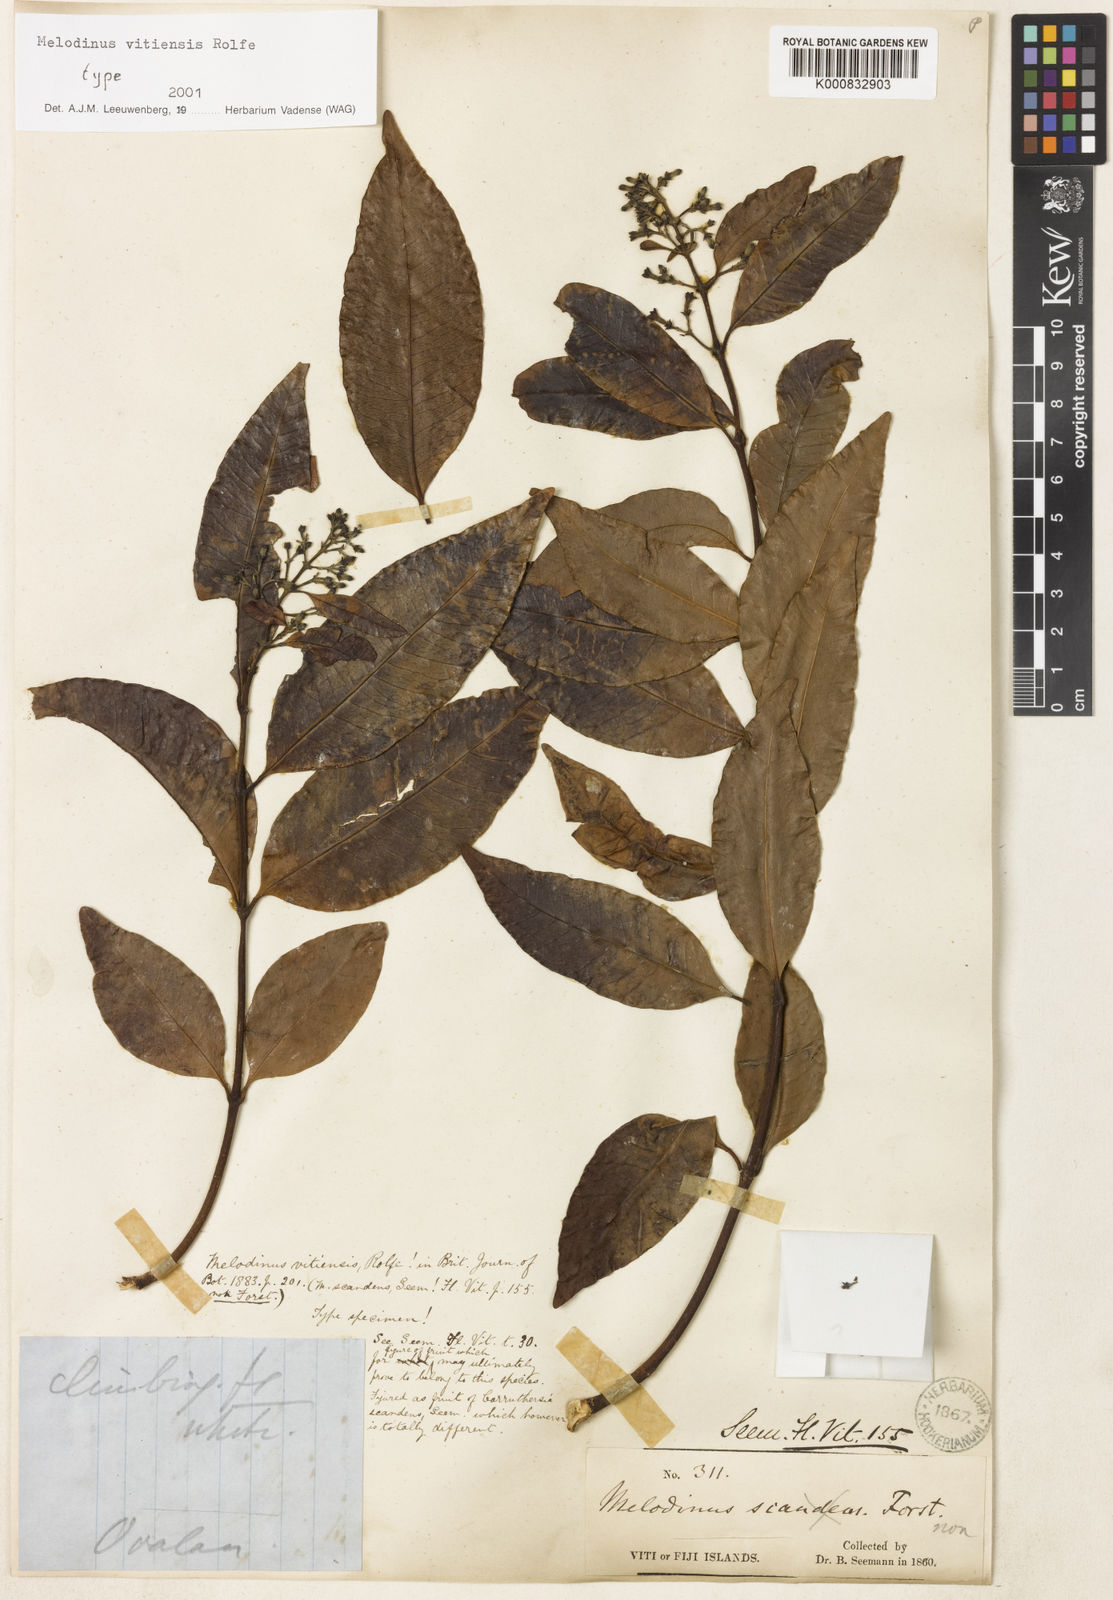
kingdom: Plantae
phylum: Tracheophyta
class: Magnoliopsida
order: Gentianales
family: Apocynaceae
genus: Melodinus
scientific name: Melodinus vitiensis
